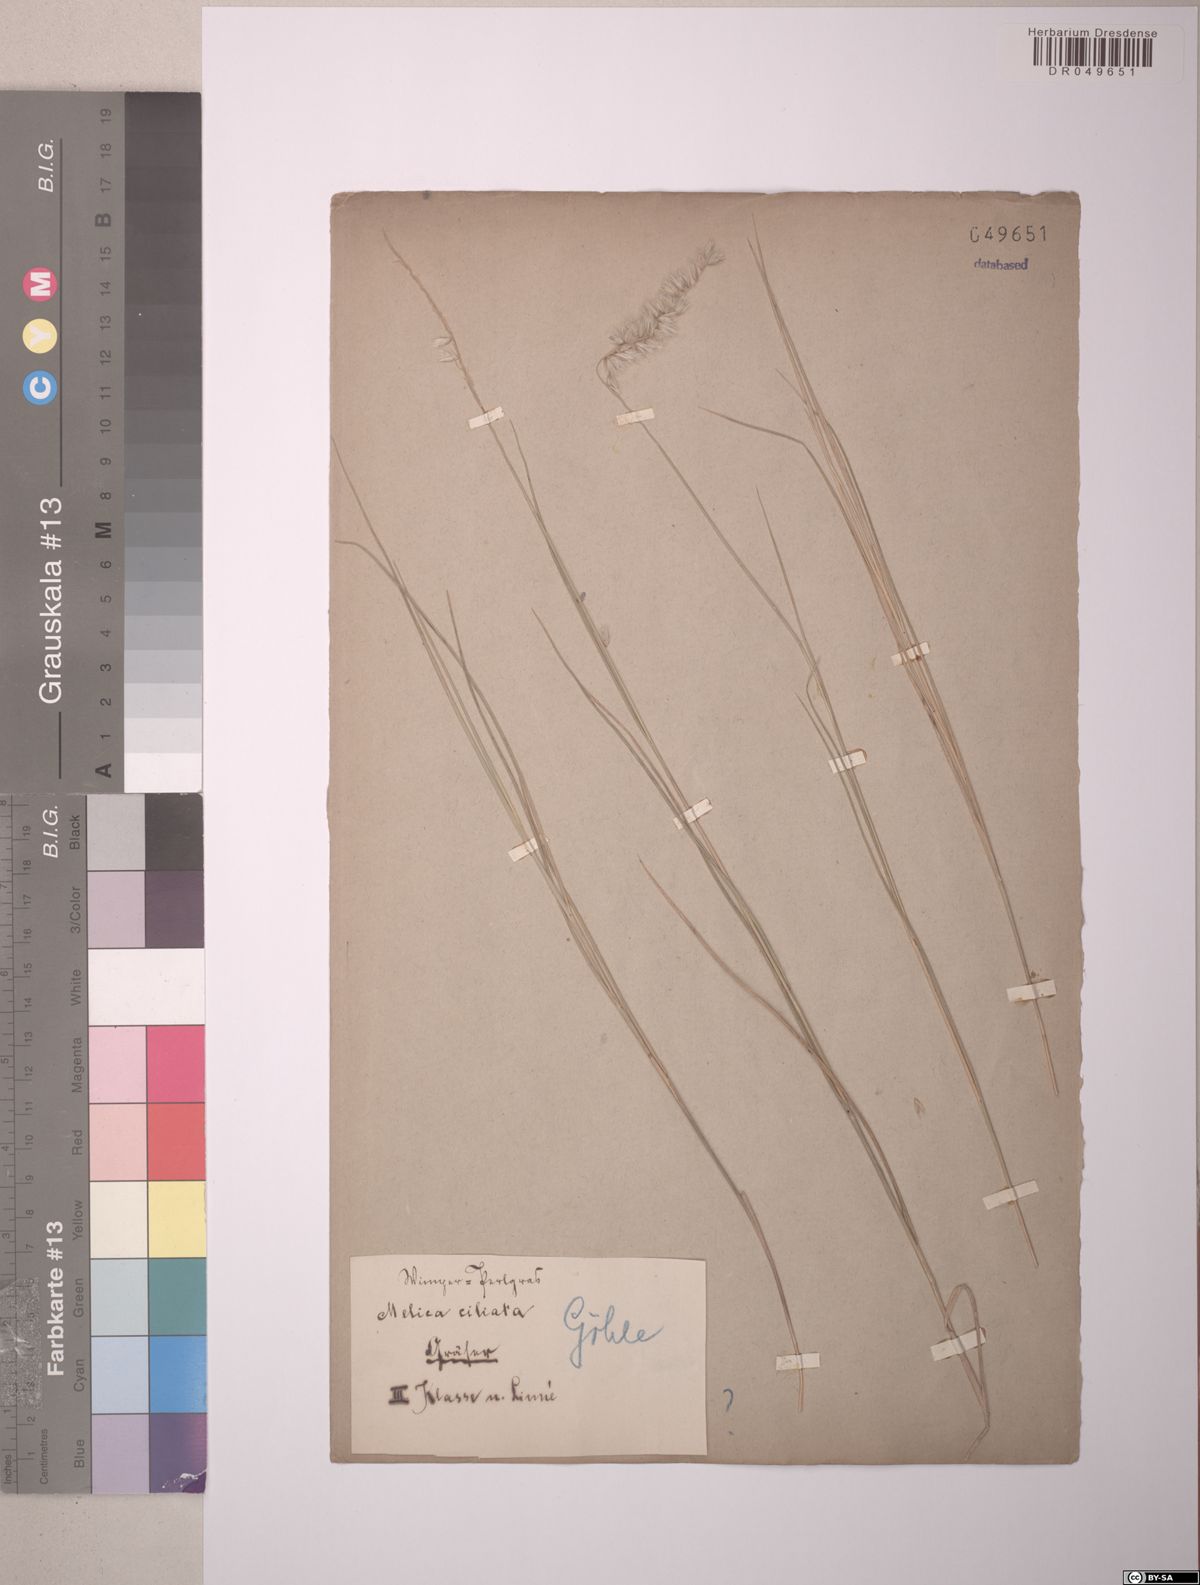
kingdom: Plantae
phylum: Tracheophyta
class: Liliopsida
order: Poales
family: Poaceae
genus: Melica
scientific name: Melica ciliata
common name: Hairy melicgrass
